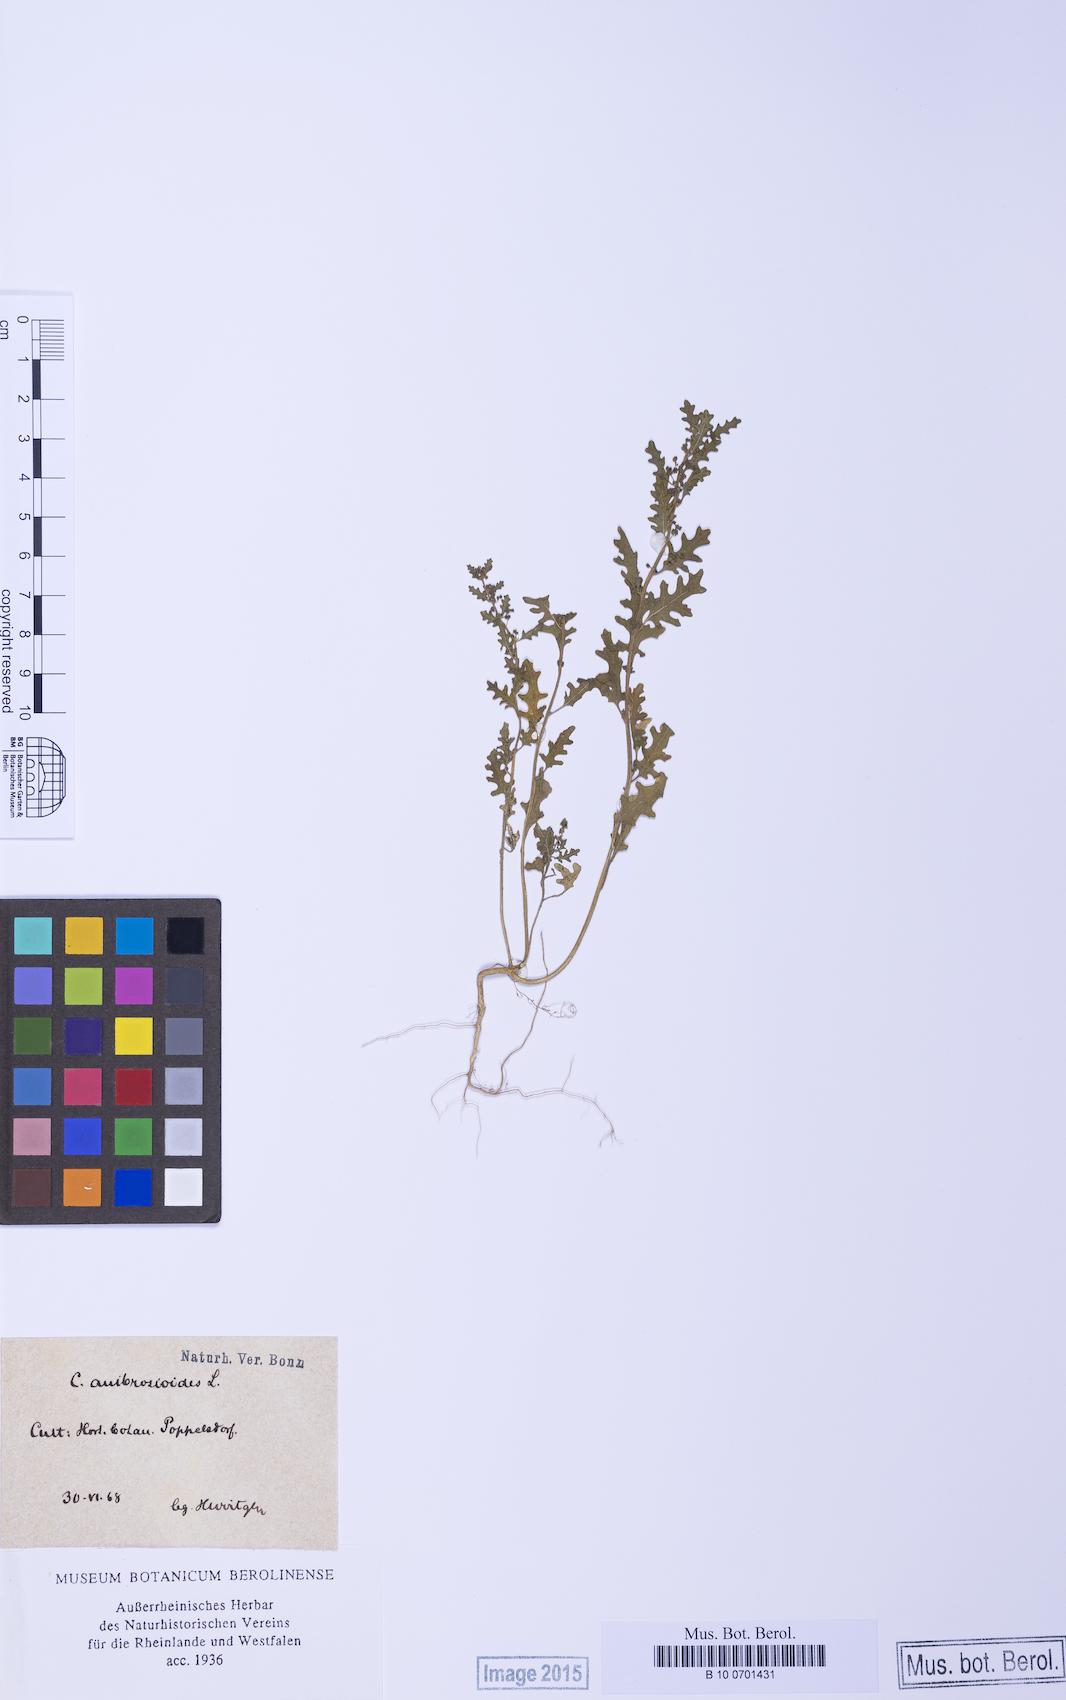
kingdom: Plantae
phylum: Tracheophyta
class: Magnoliopsida
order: Caryophyllales
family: Amaranthaceae
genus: Dysphania
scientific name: Dysphania schraderiana
